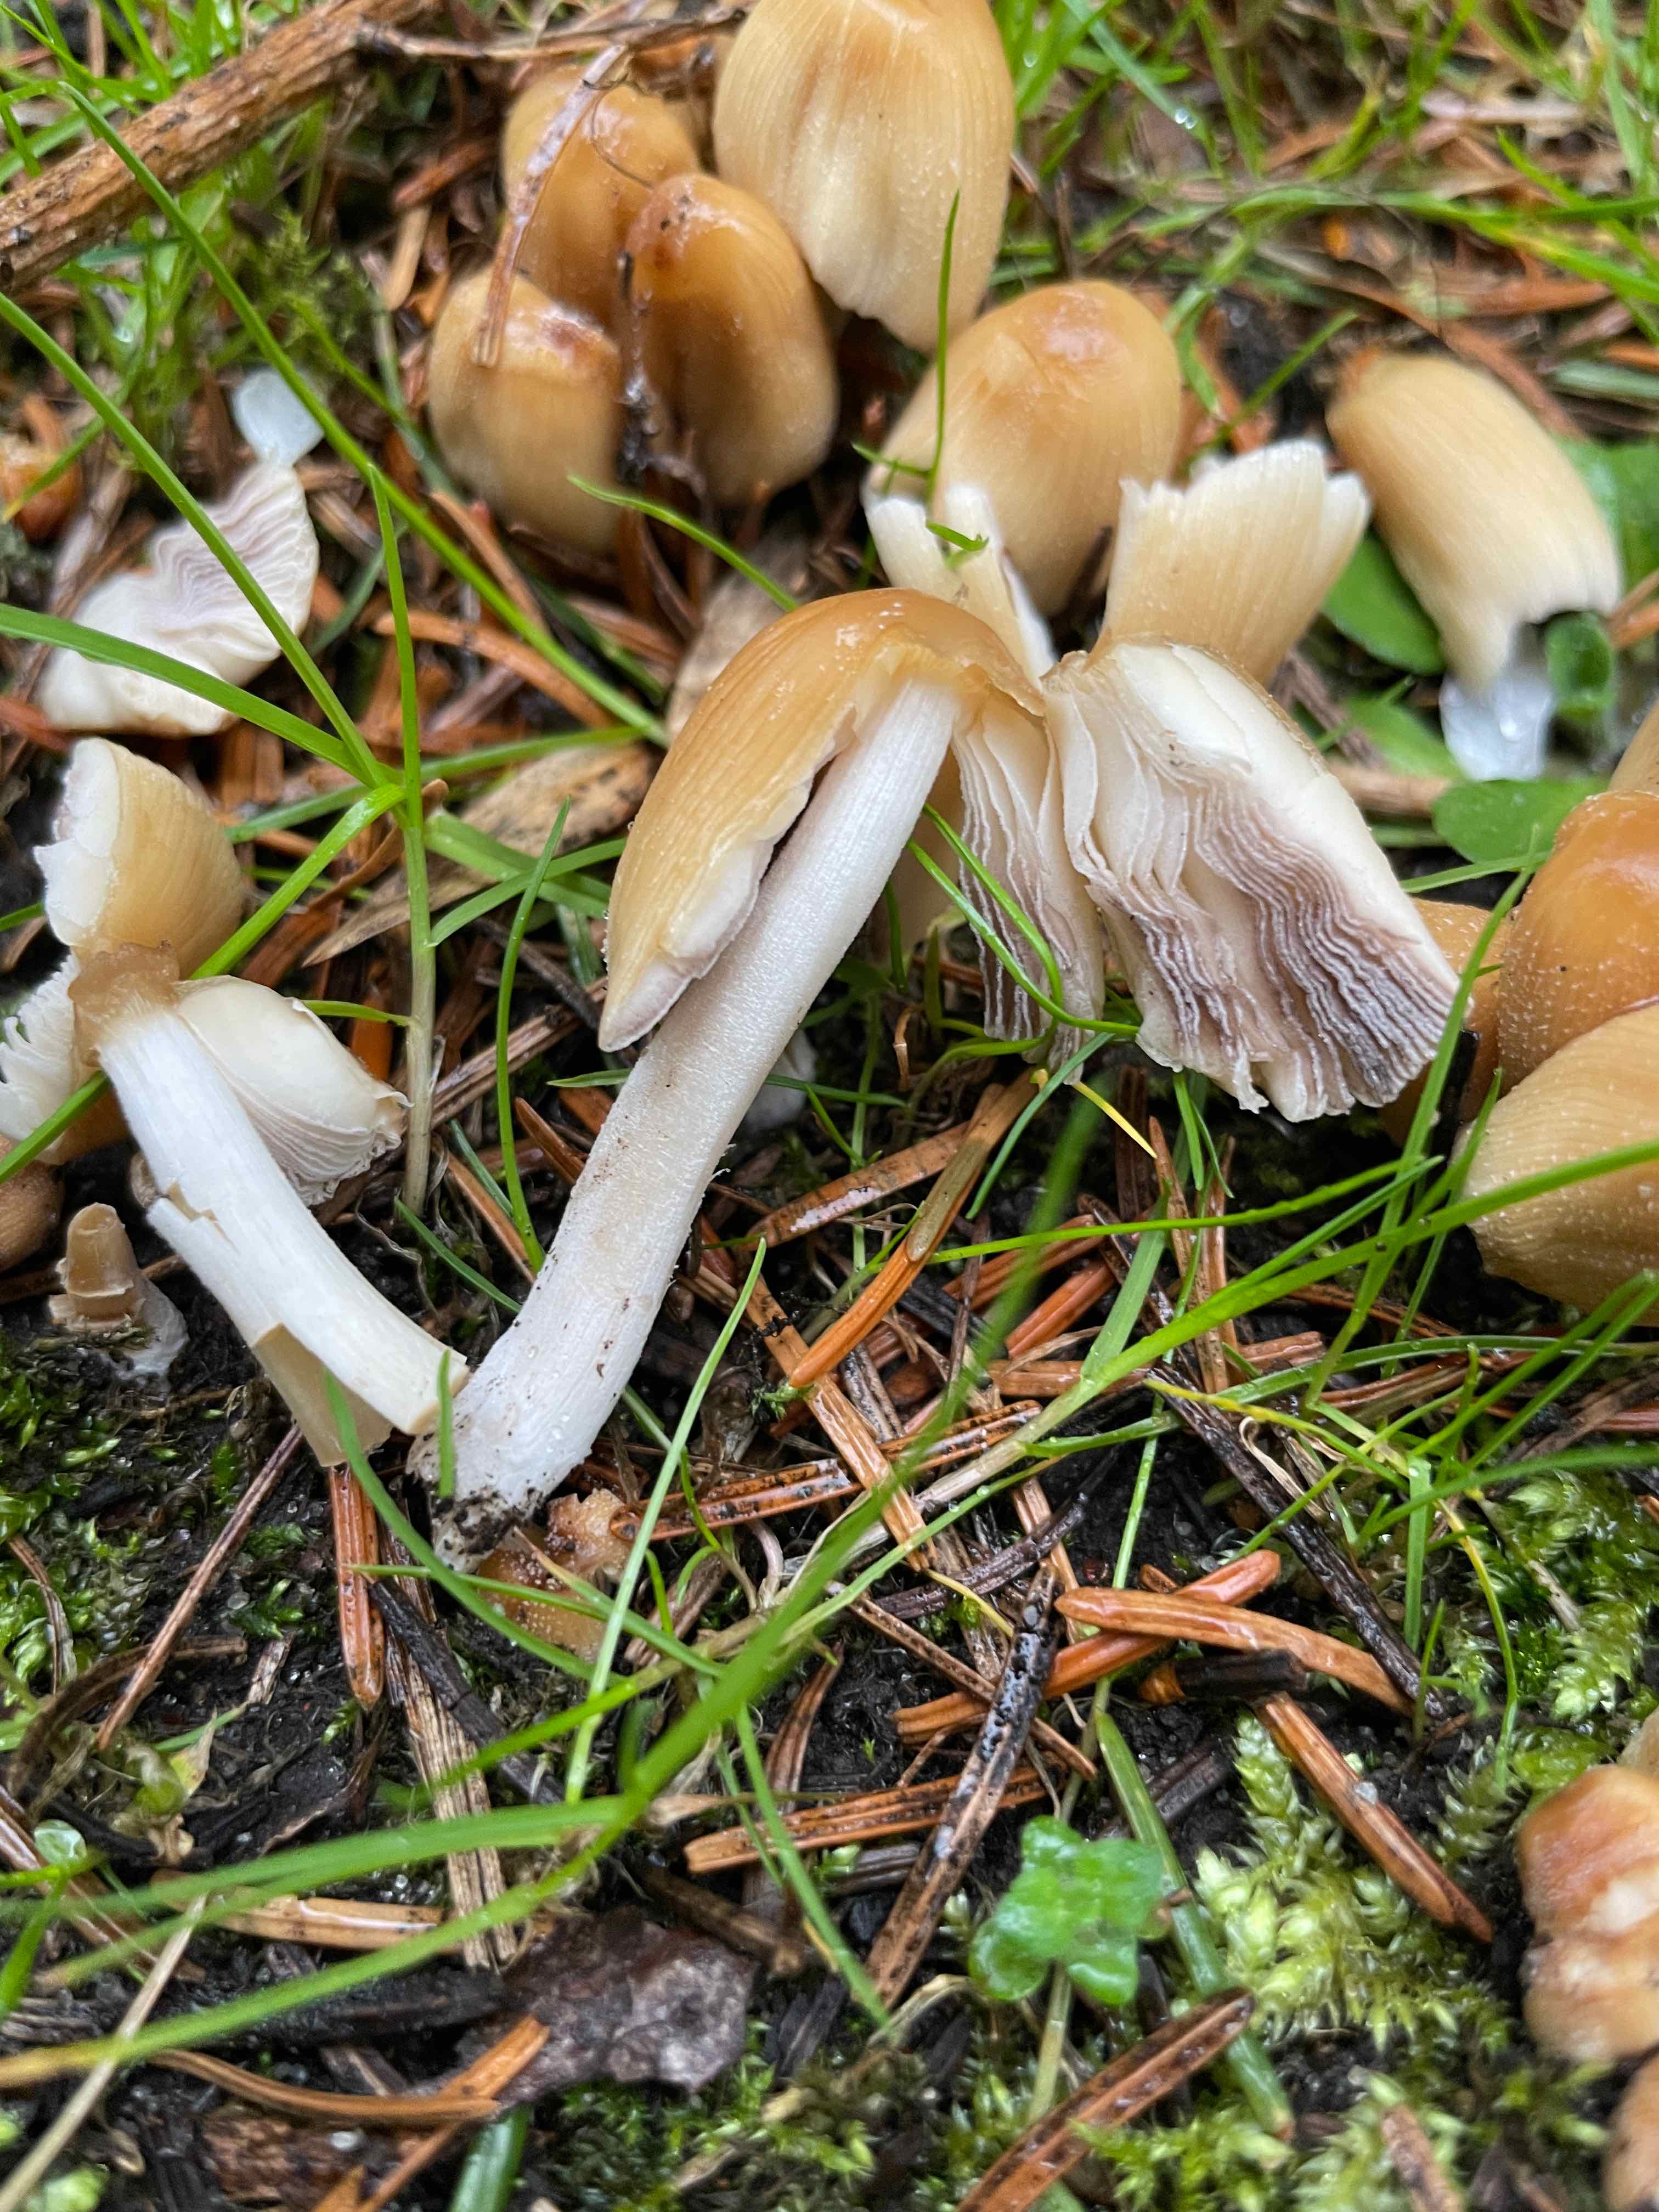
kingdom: Fungi
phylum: Basidiomycota
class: Agaricomycetes
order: Agaricales
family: Psathyrellaceae
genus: Coprinellus
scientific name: Coprinellus micaceus
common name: glimmer-blækhat
